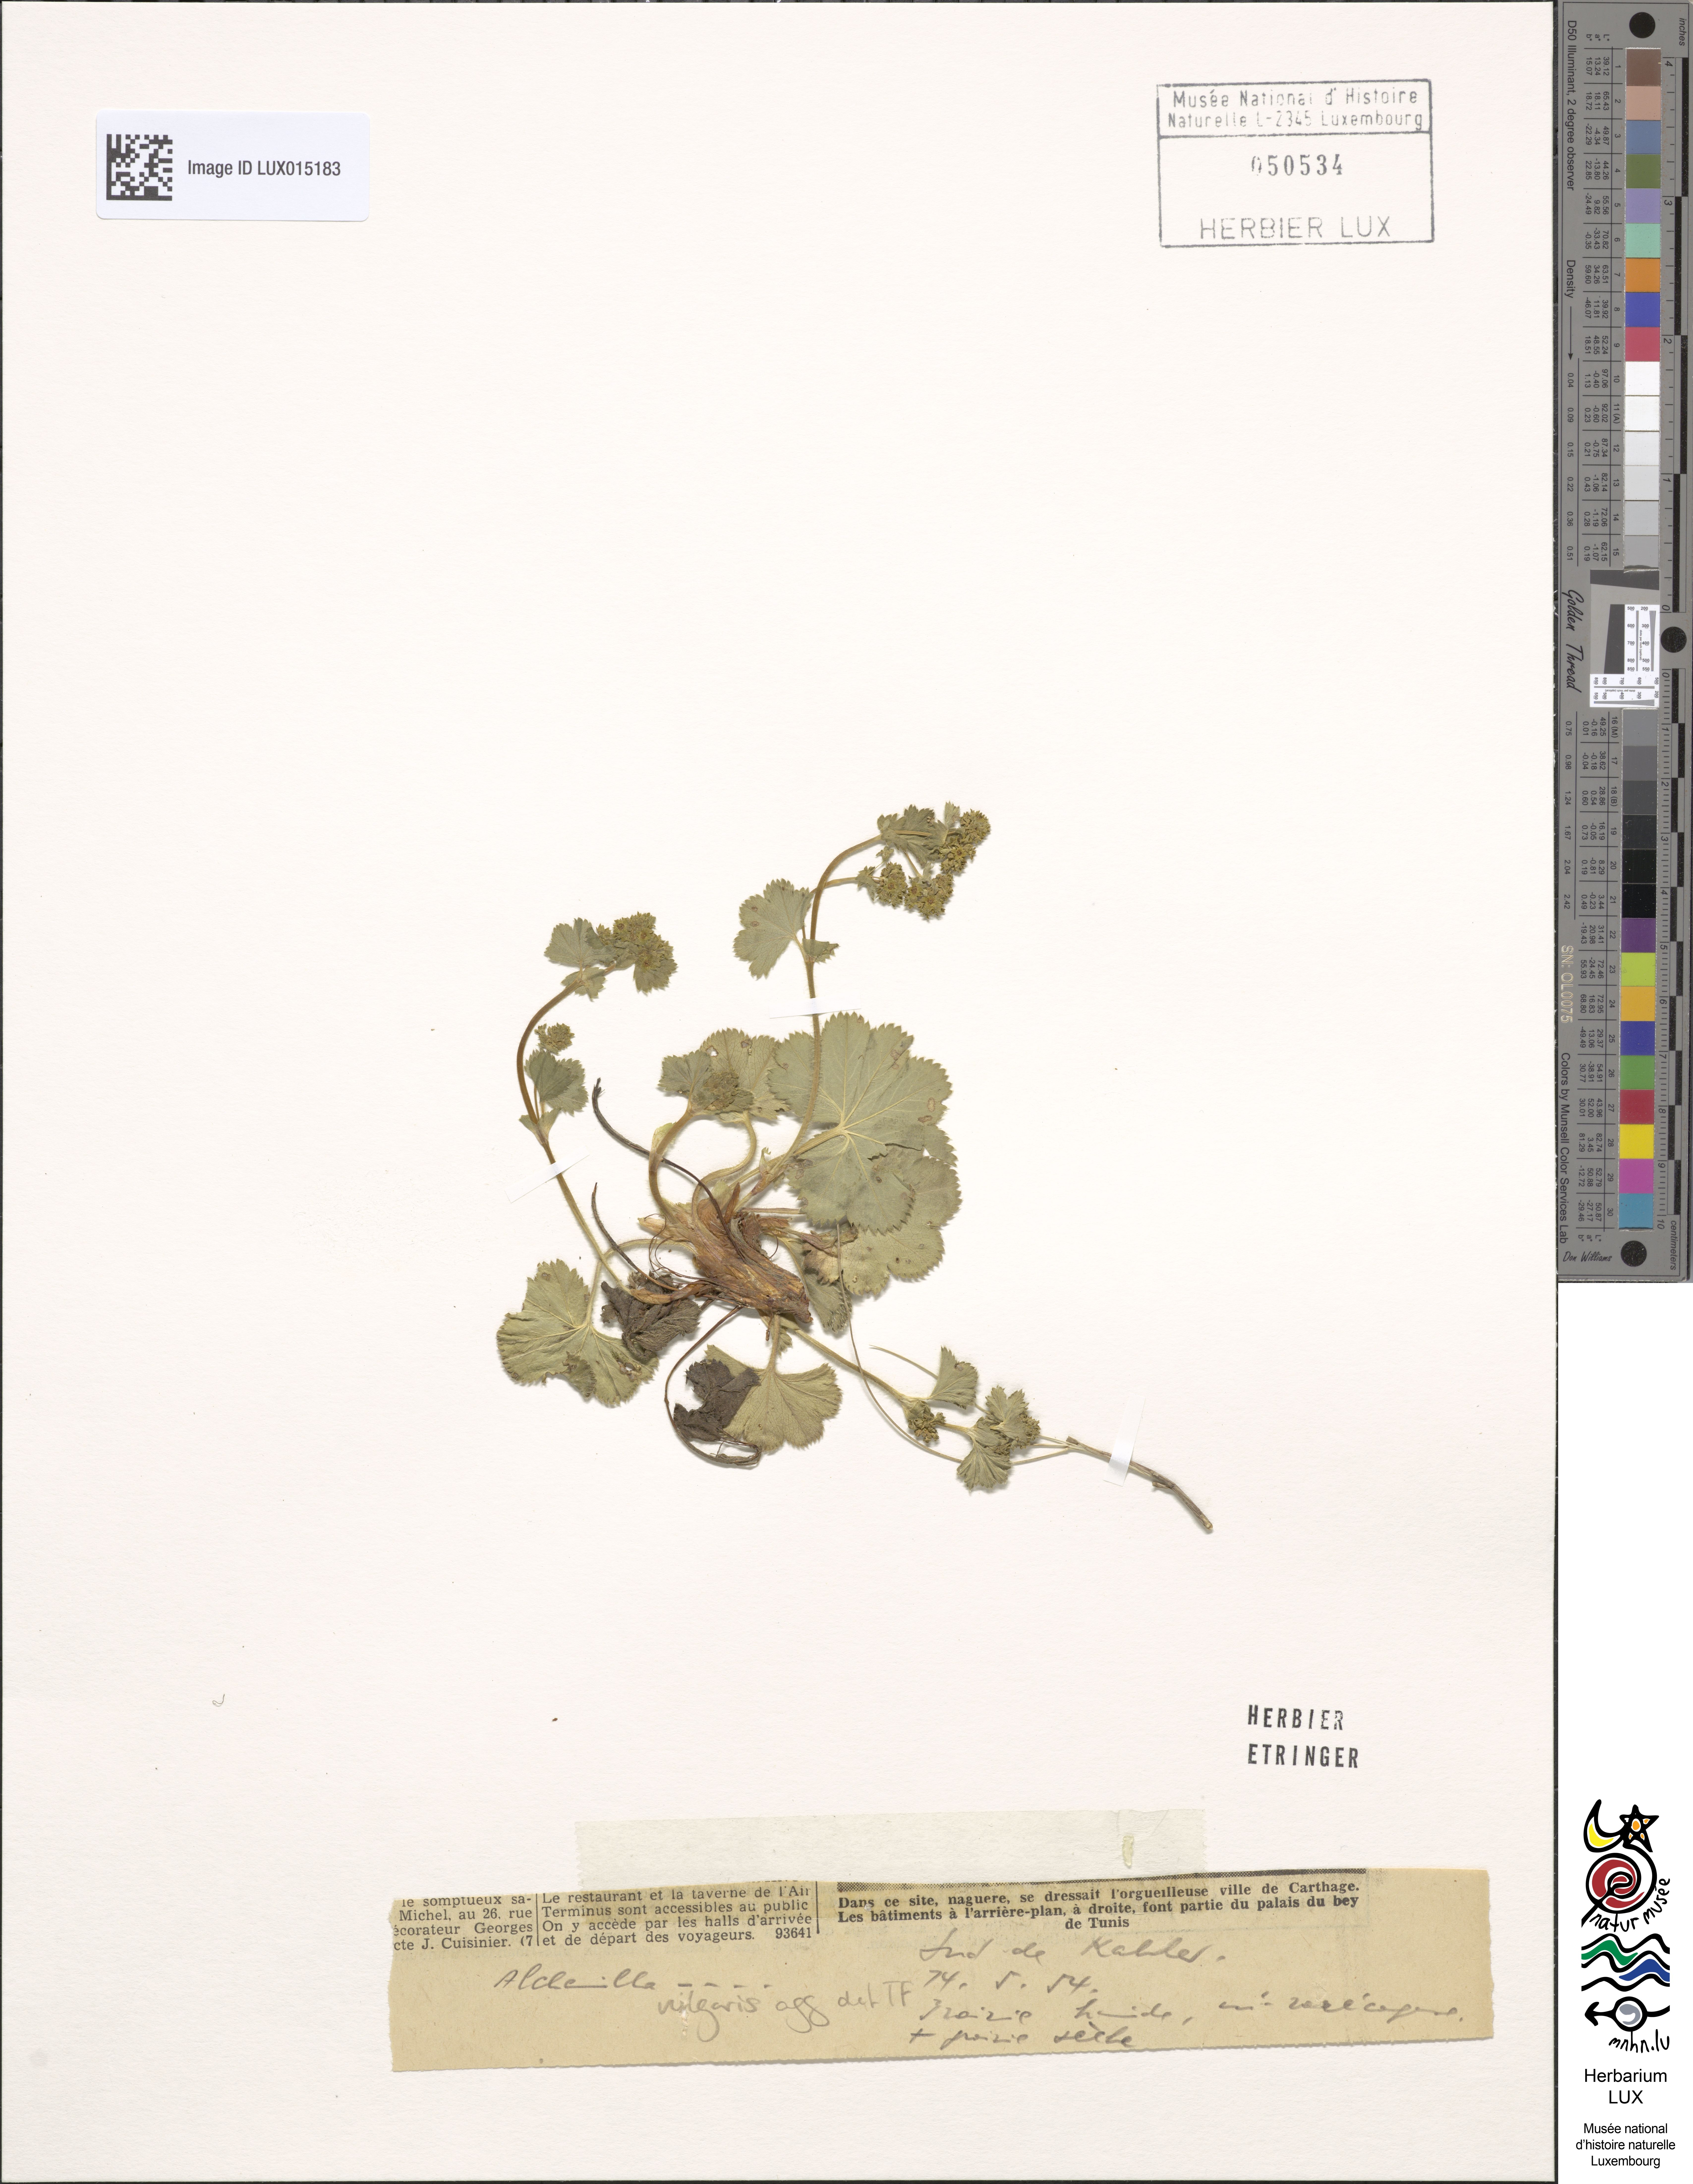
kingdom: Plantae
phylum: Tracheophyta
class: Magnoliopsida
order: Rosales
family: Rosaceae
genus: Alchemilla
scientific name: Alchemilla vulgaris
